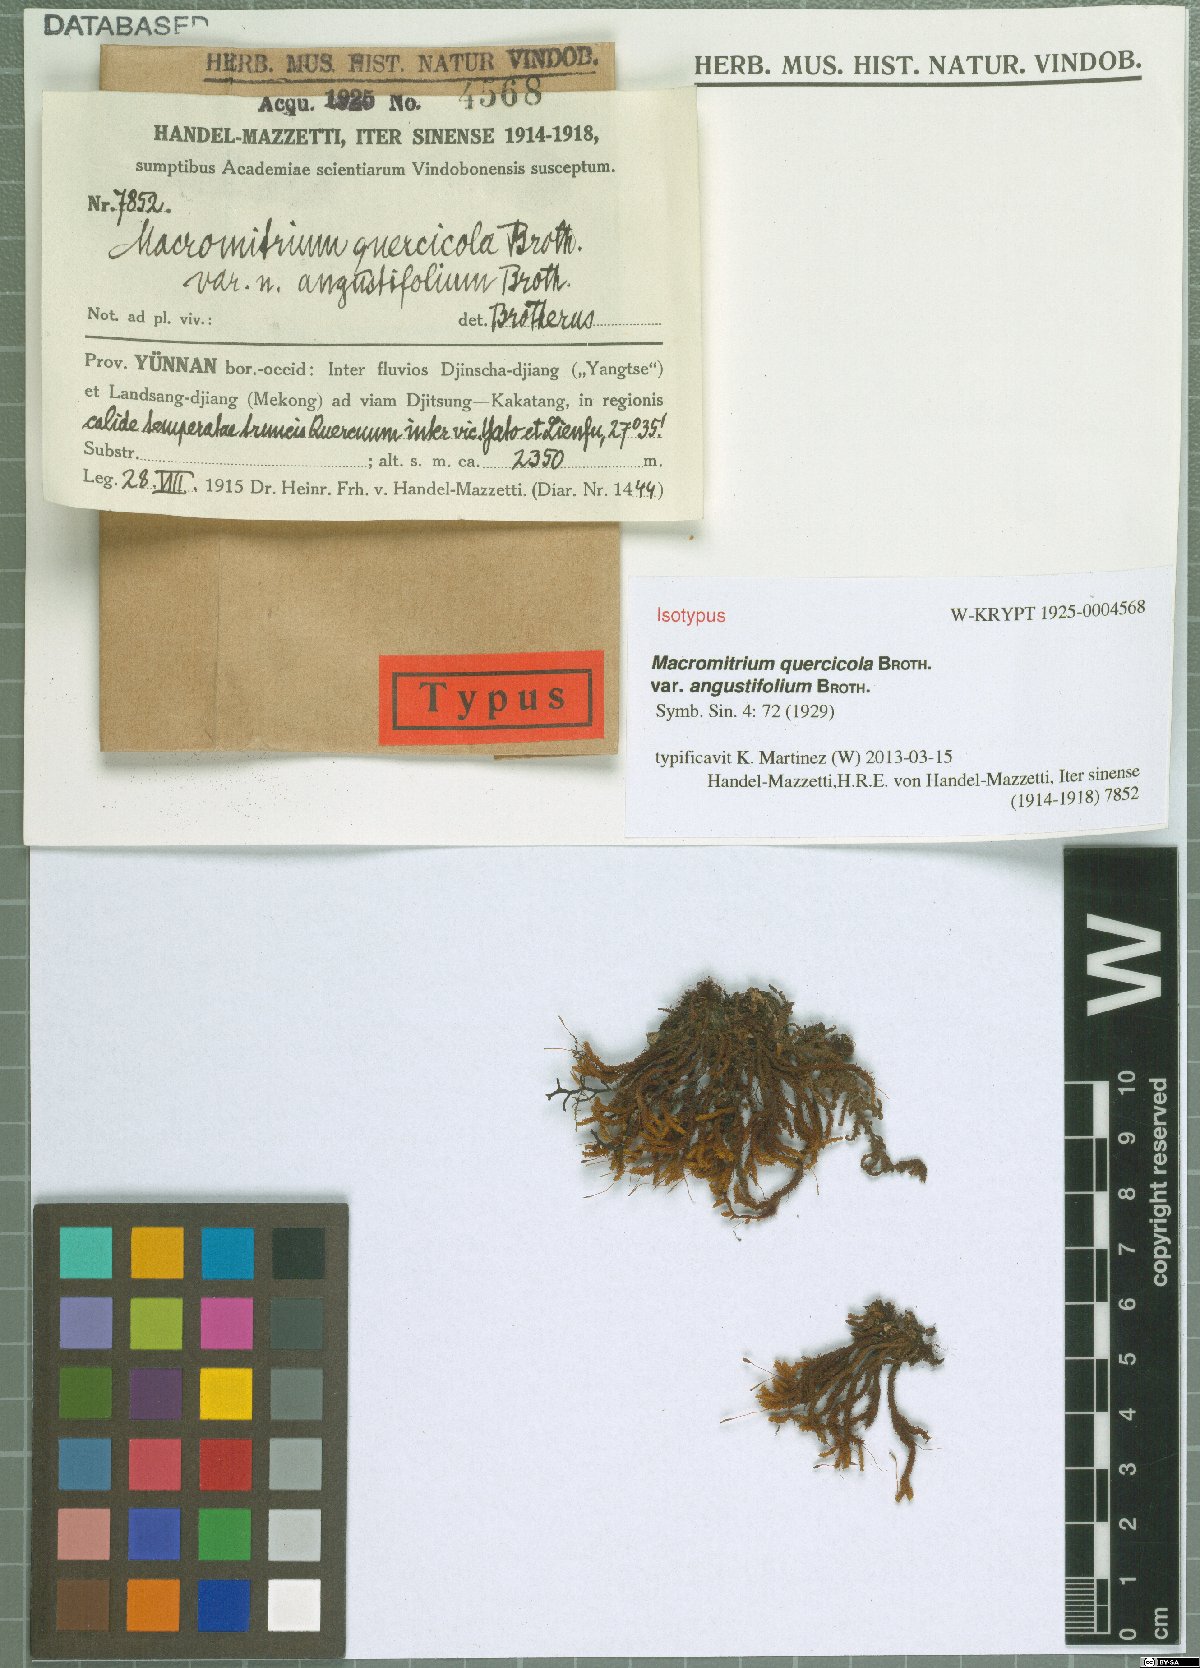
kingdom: Plantae
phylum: Bryophyta
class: Bryopsida
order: Orthotrichales
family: Orthotrichaceae
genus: Macromitrium
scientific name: Macromitrium ferriei
